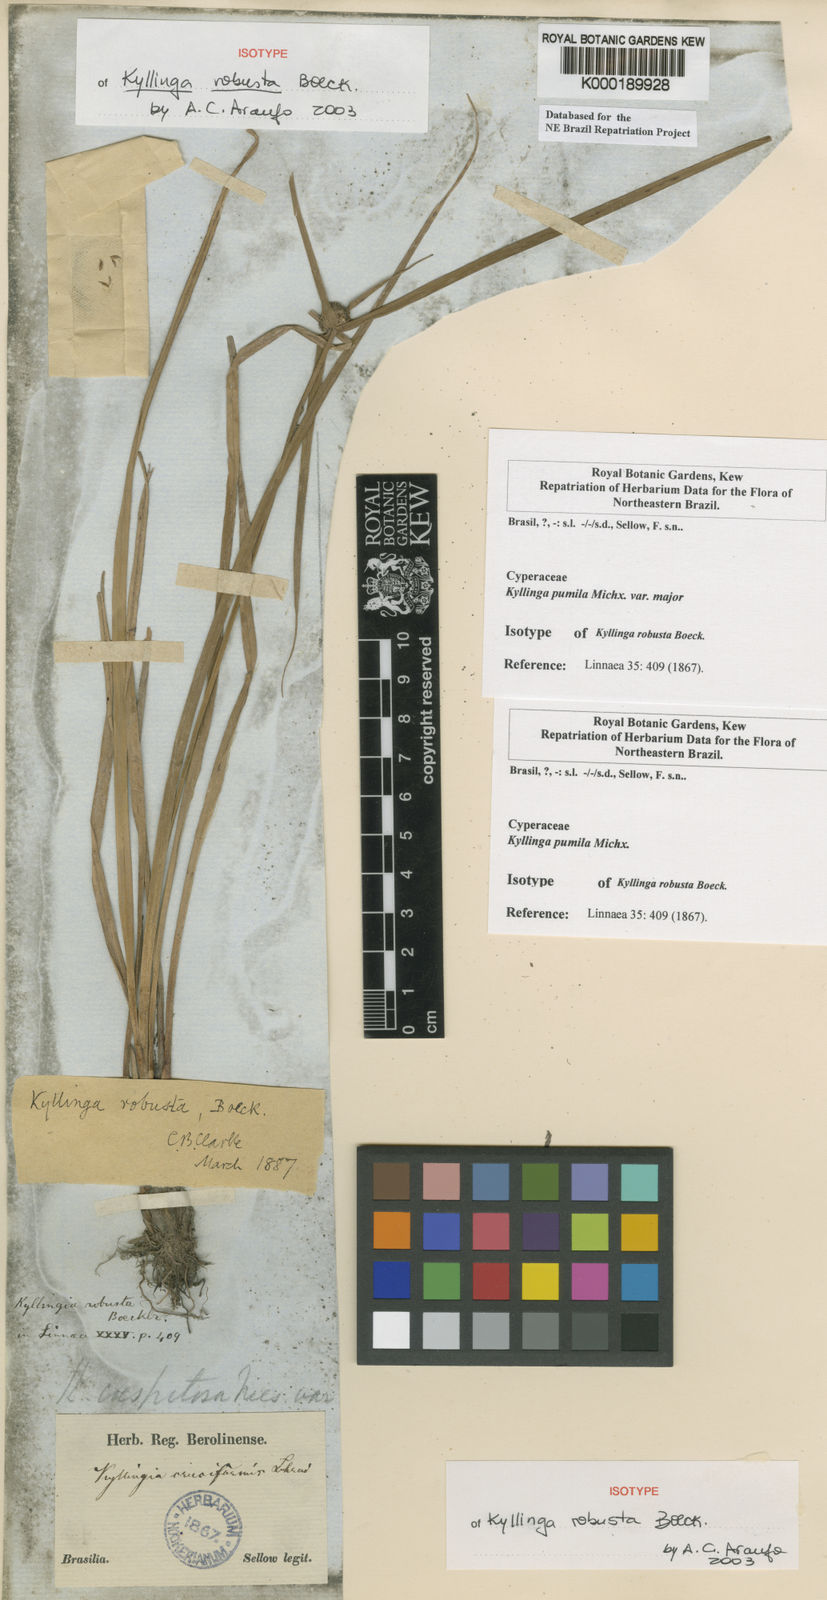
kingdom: Plantae
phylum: Tracheophyta
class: Liliopsida
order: Poales
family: Cyperaceae
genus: Cyperus
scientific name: Cyperus hortensis
